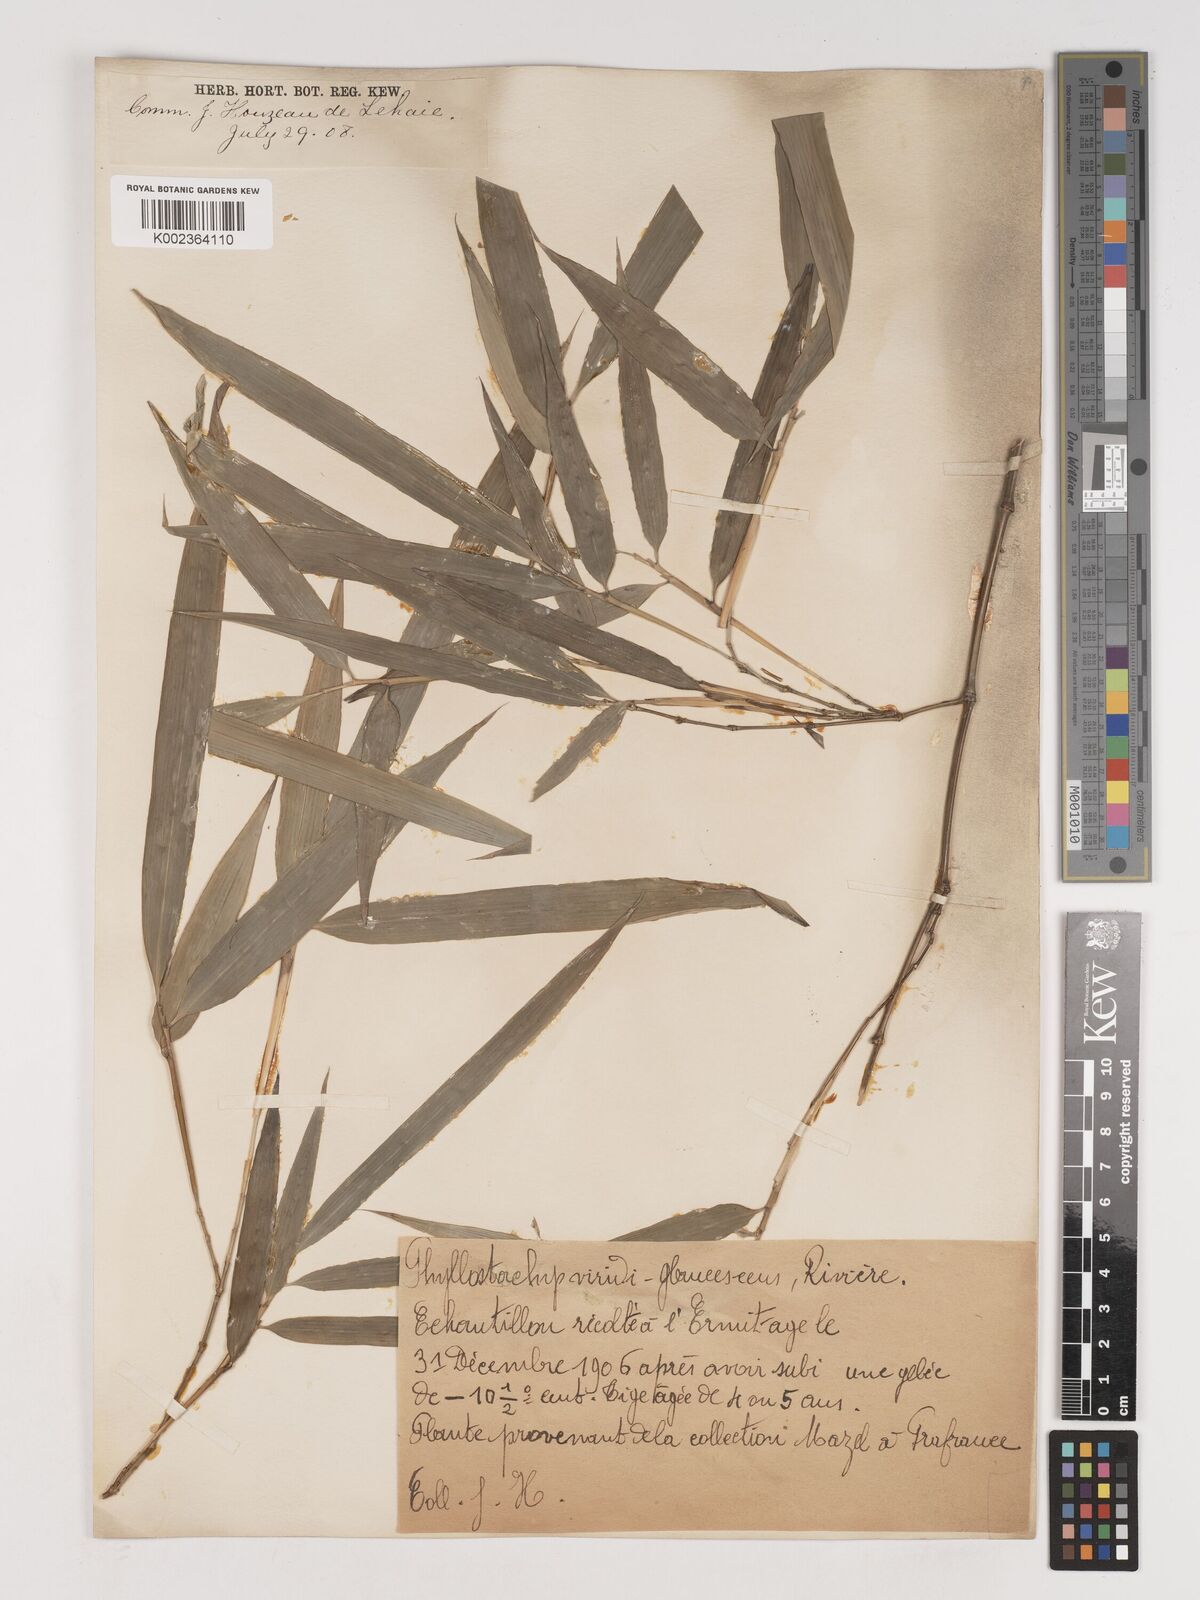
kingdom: Plantae
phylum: Tracheophyta
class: Liliopsida
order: Poales
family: Poaceae
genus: Phyllostachys
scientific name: Phyllostachys
